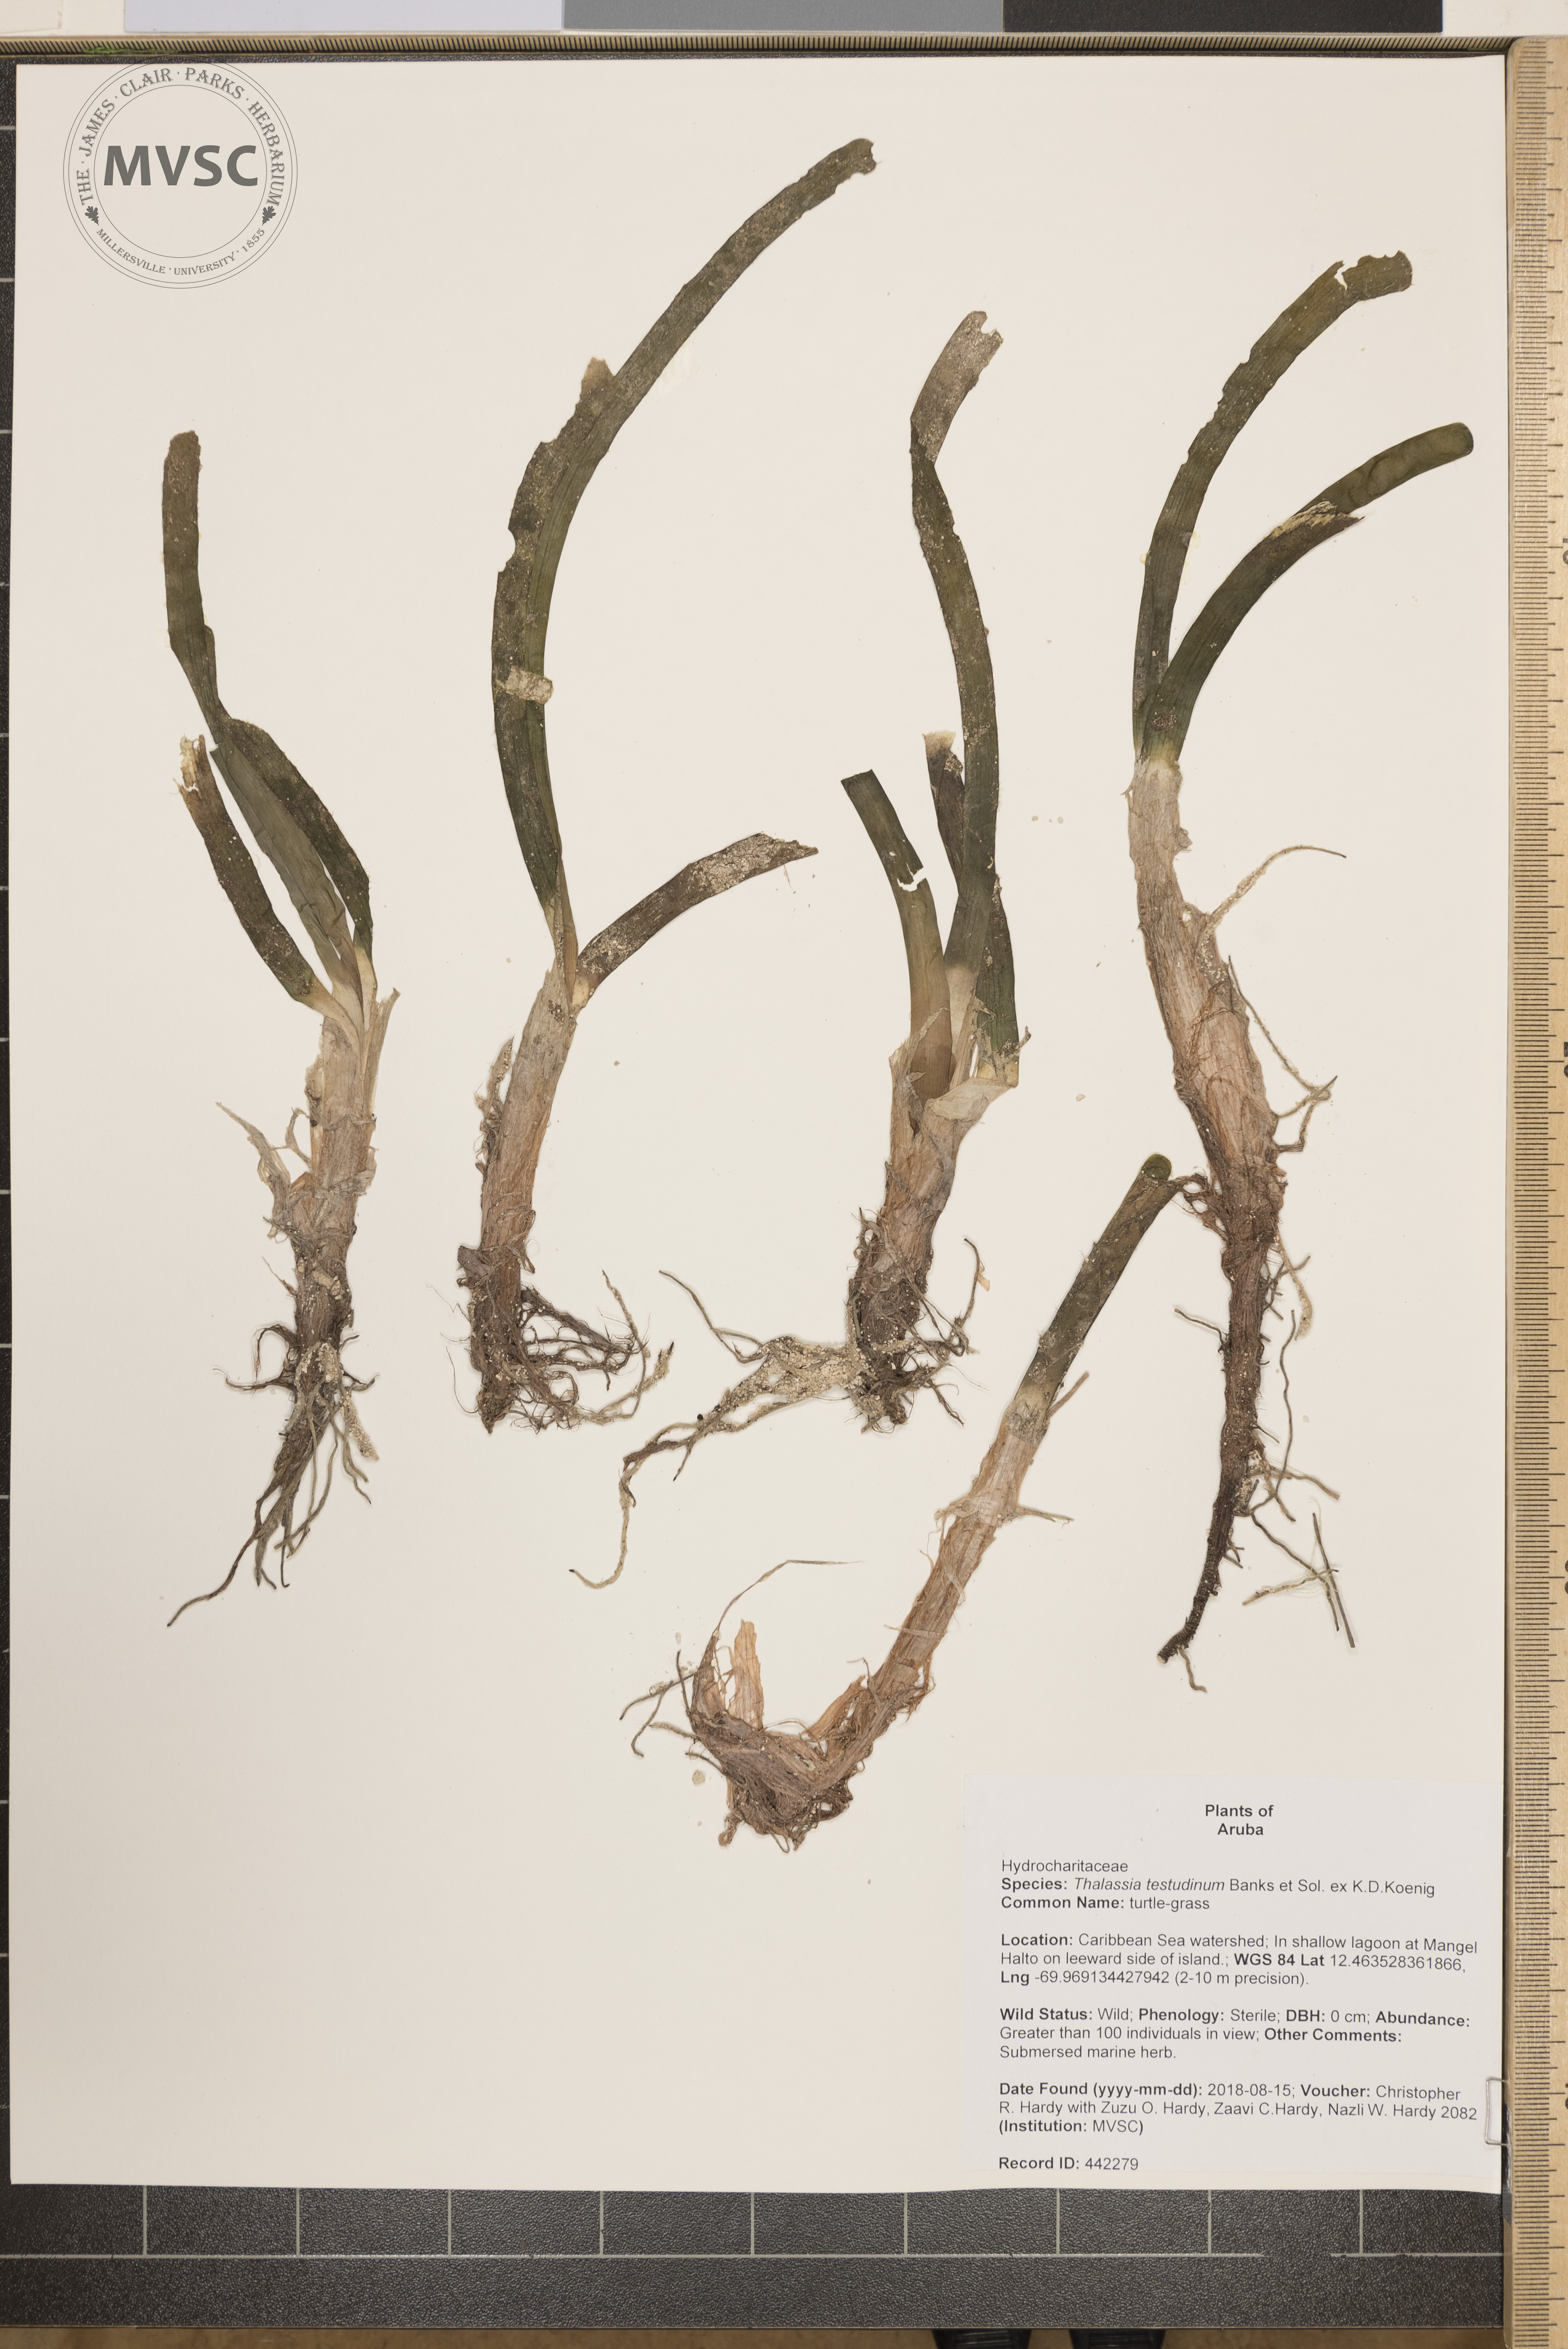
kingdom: Plantae
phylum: Tracheophyta
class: Liliopsida
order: Alismatales
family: Hydrocharitaceae
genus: Thalassia
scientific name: Thalassia testudinum
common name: turtle-grass
